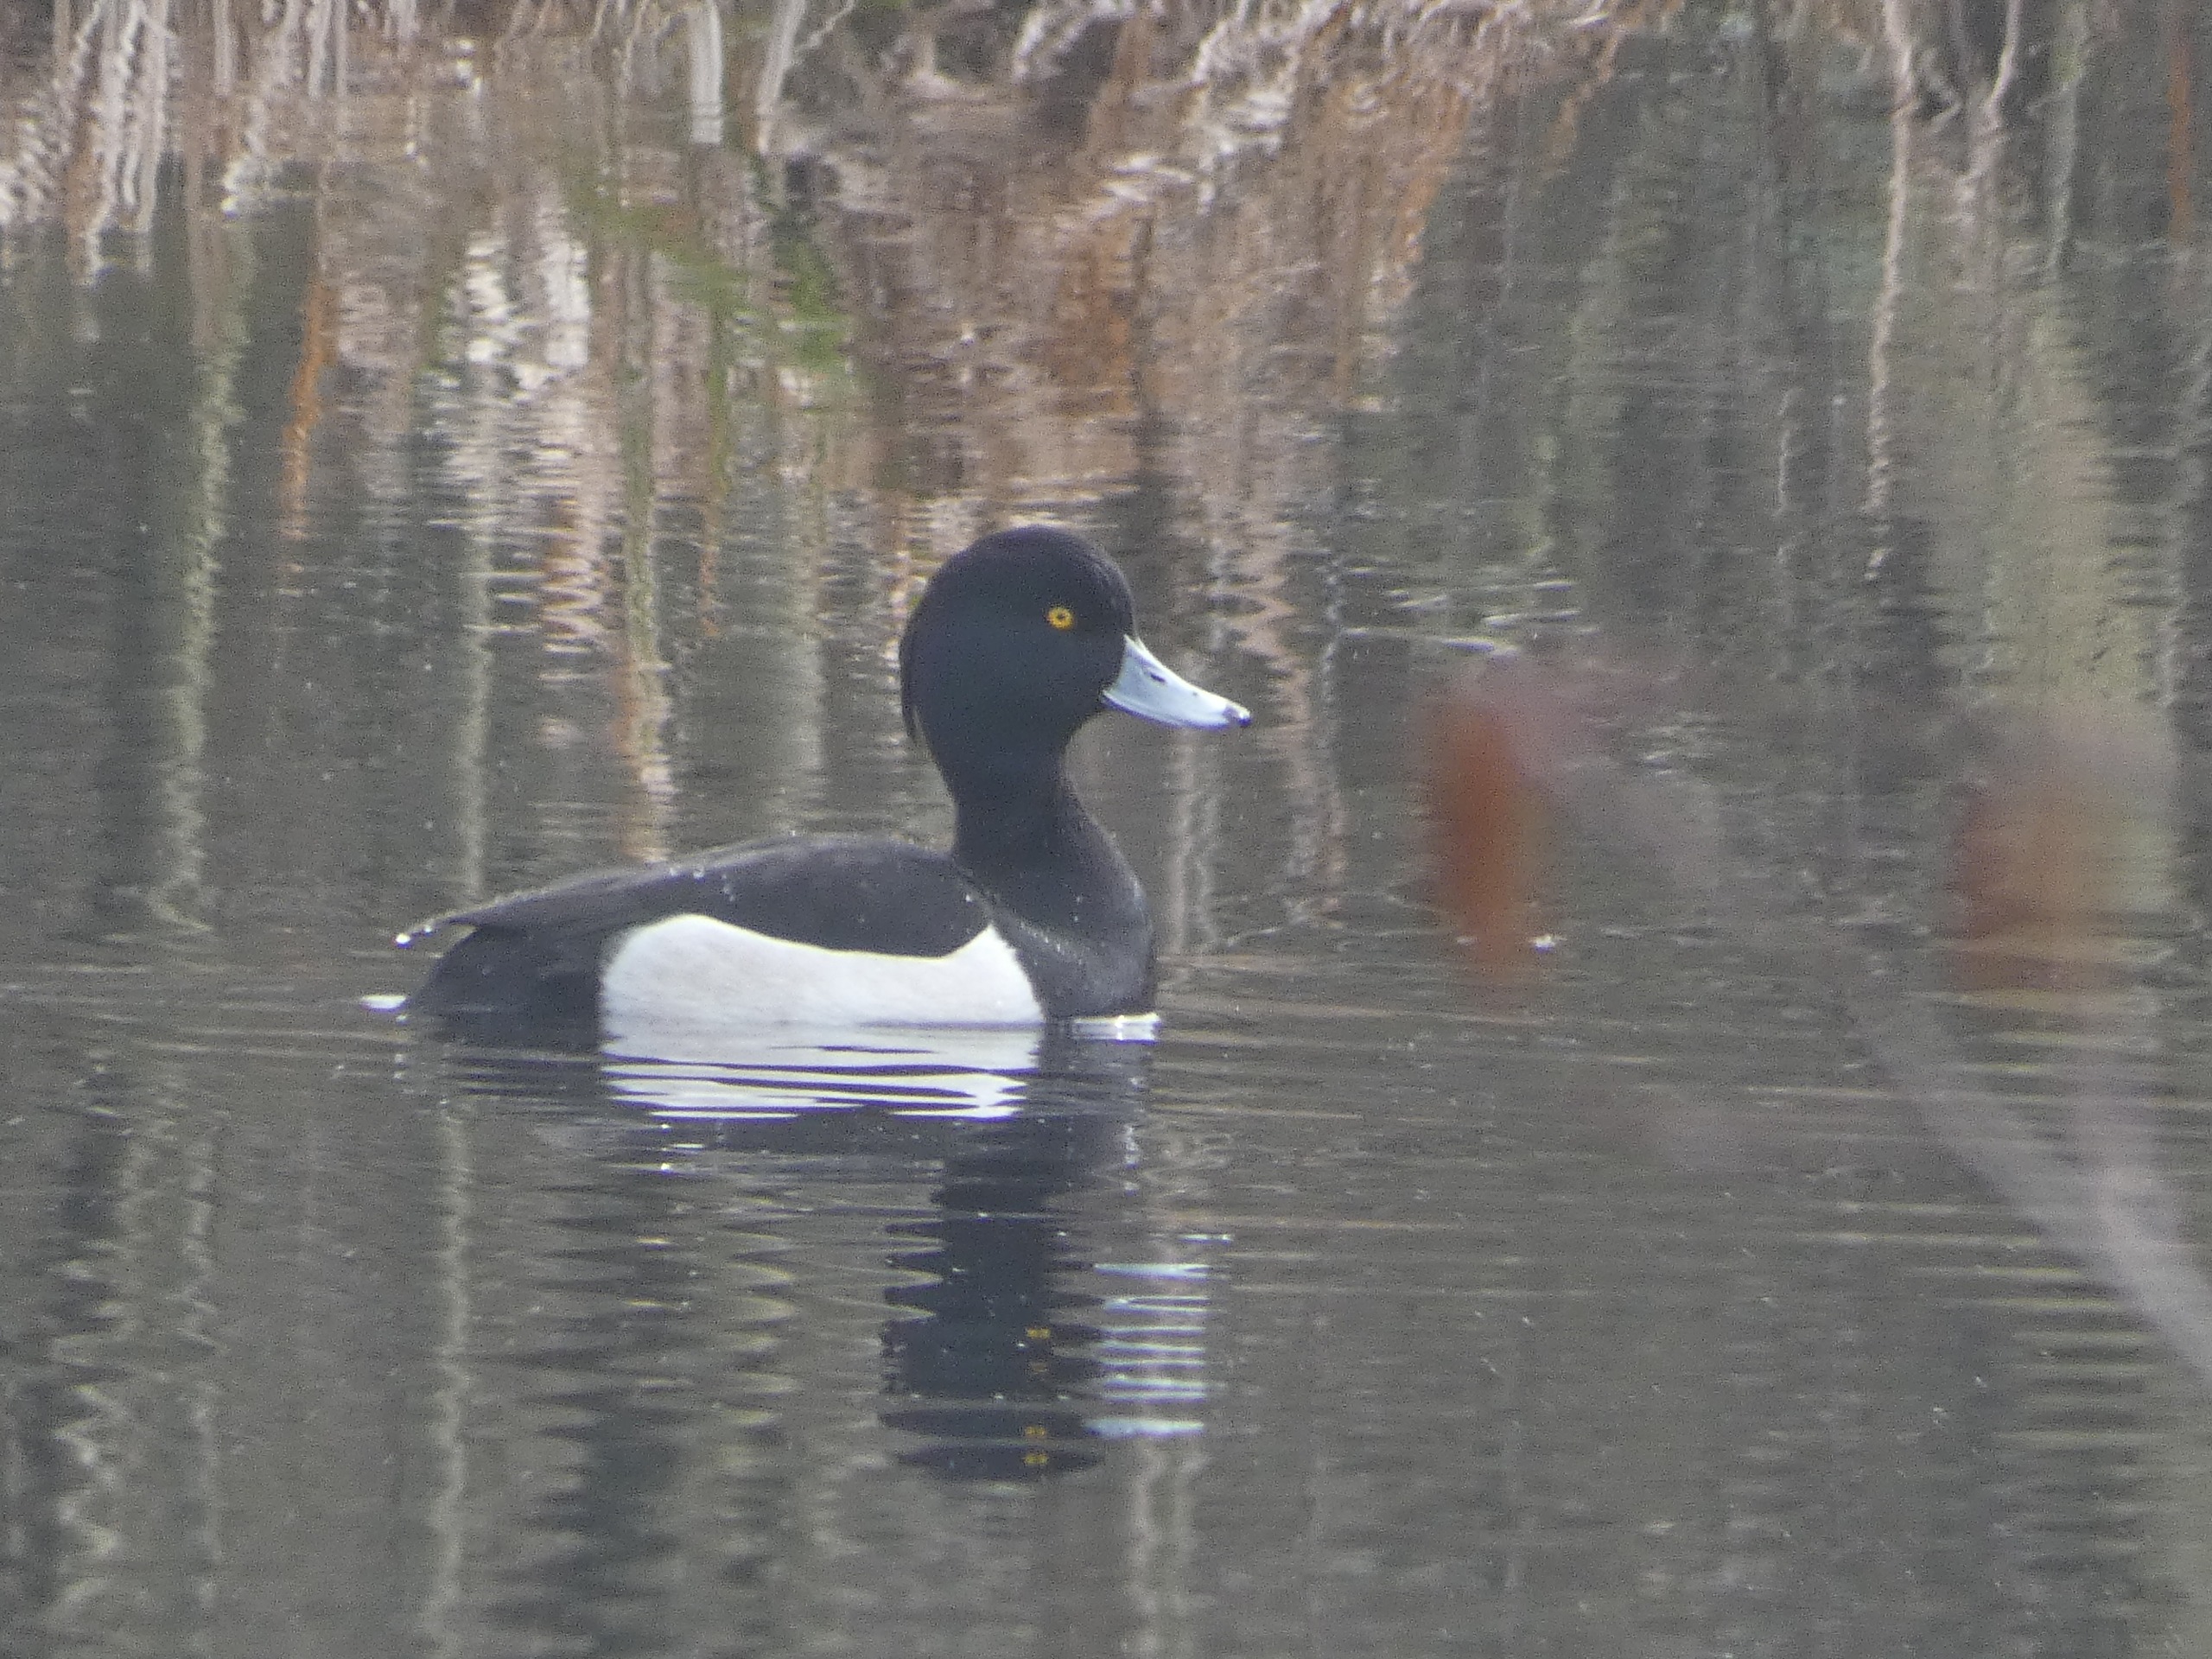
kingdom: Animalia
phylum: Chordata
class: Aves
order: Anseriformes
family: Anatidae
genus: Aythya
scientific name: Aythya fuligula
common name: Troldand
